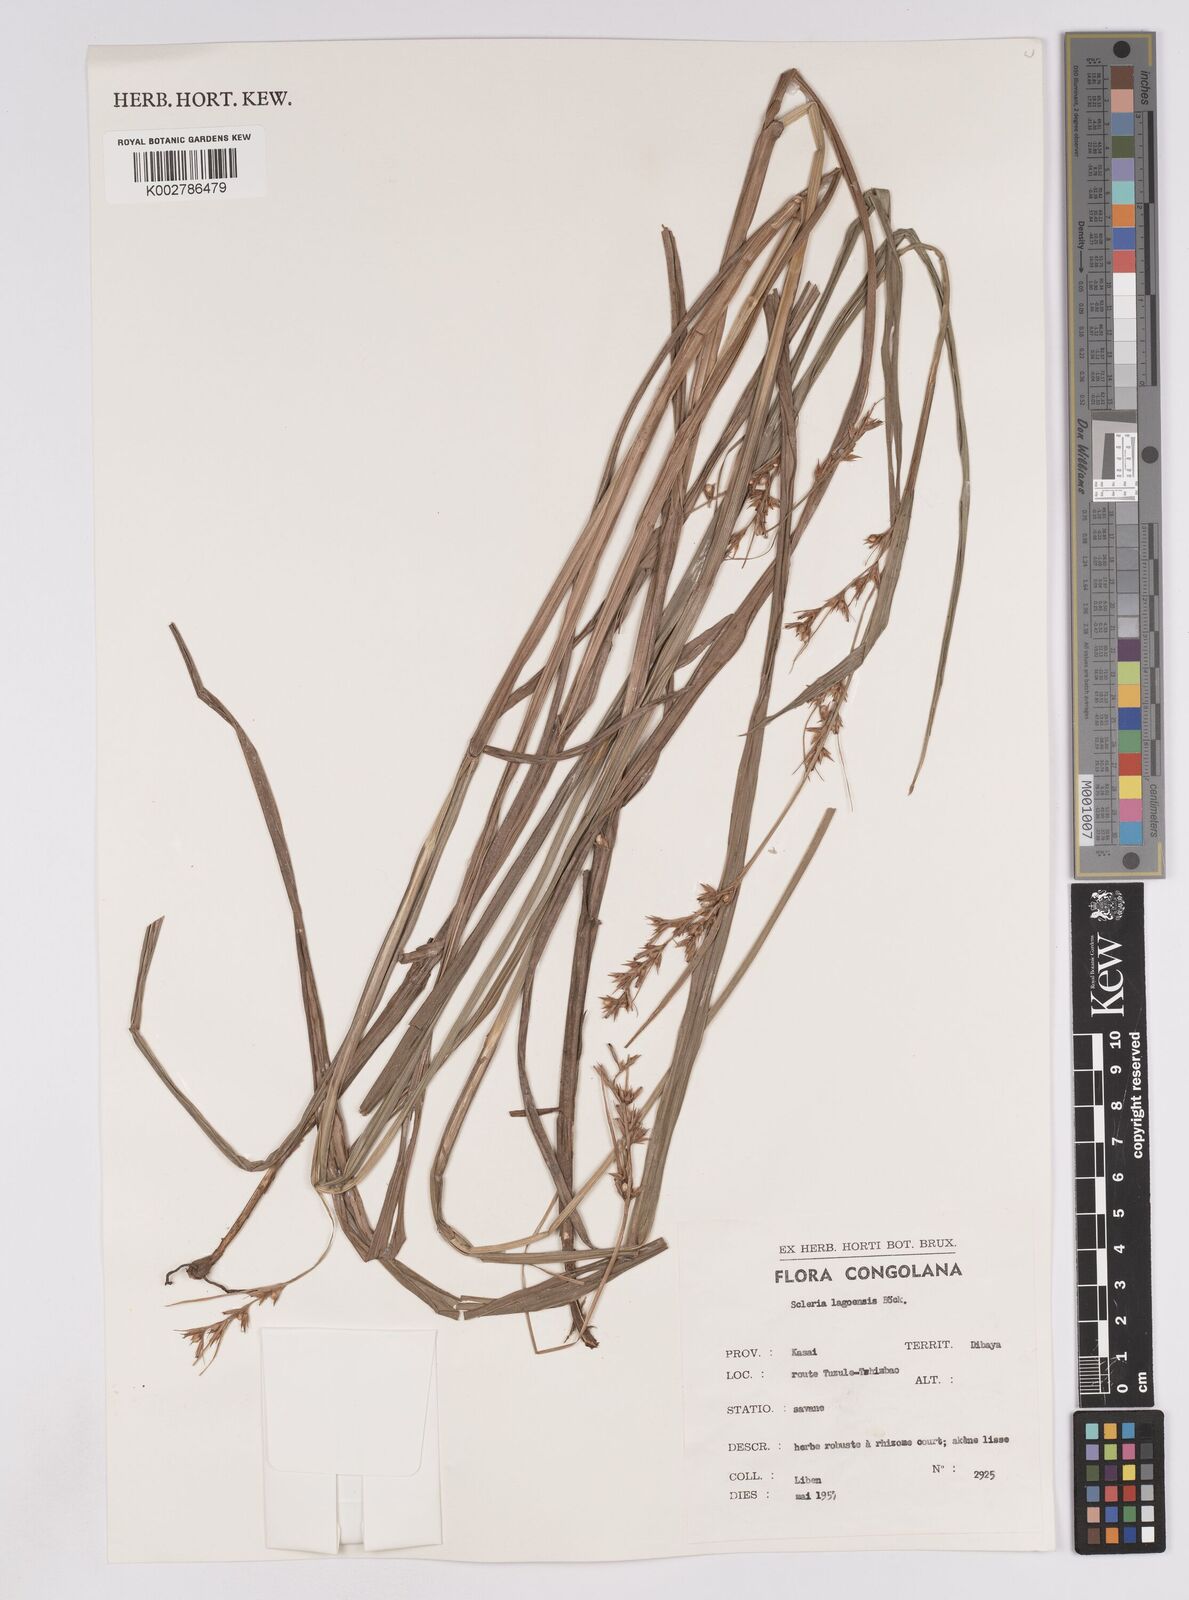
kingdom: Plantae
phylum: Tracheophyta
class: Liliopsida
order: Poales
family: Cyperaceae
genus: Scleria
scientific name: Scleria lagoensis
